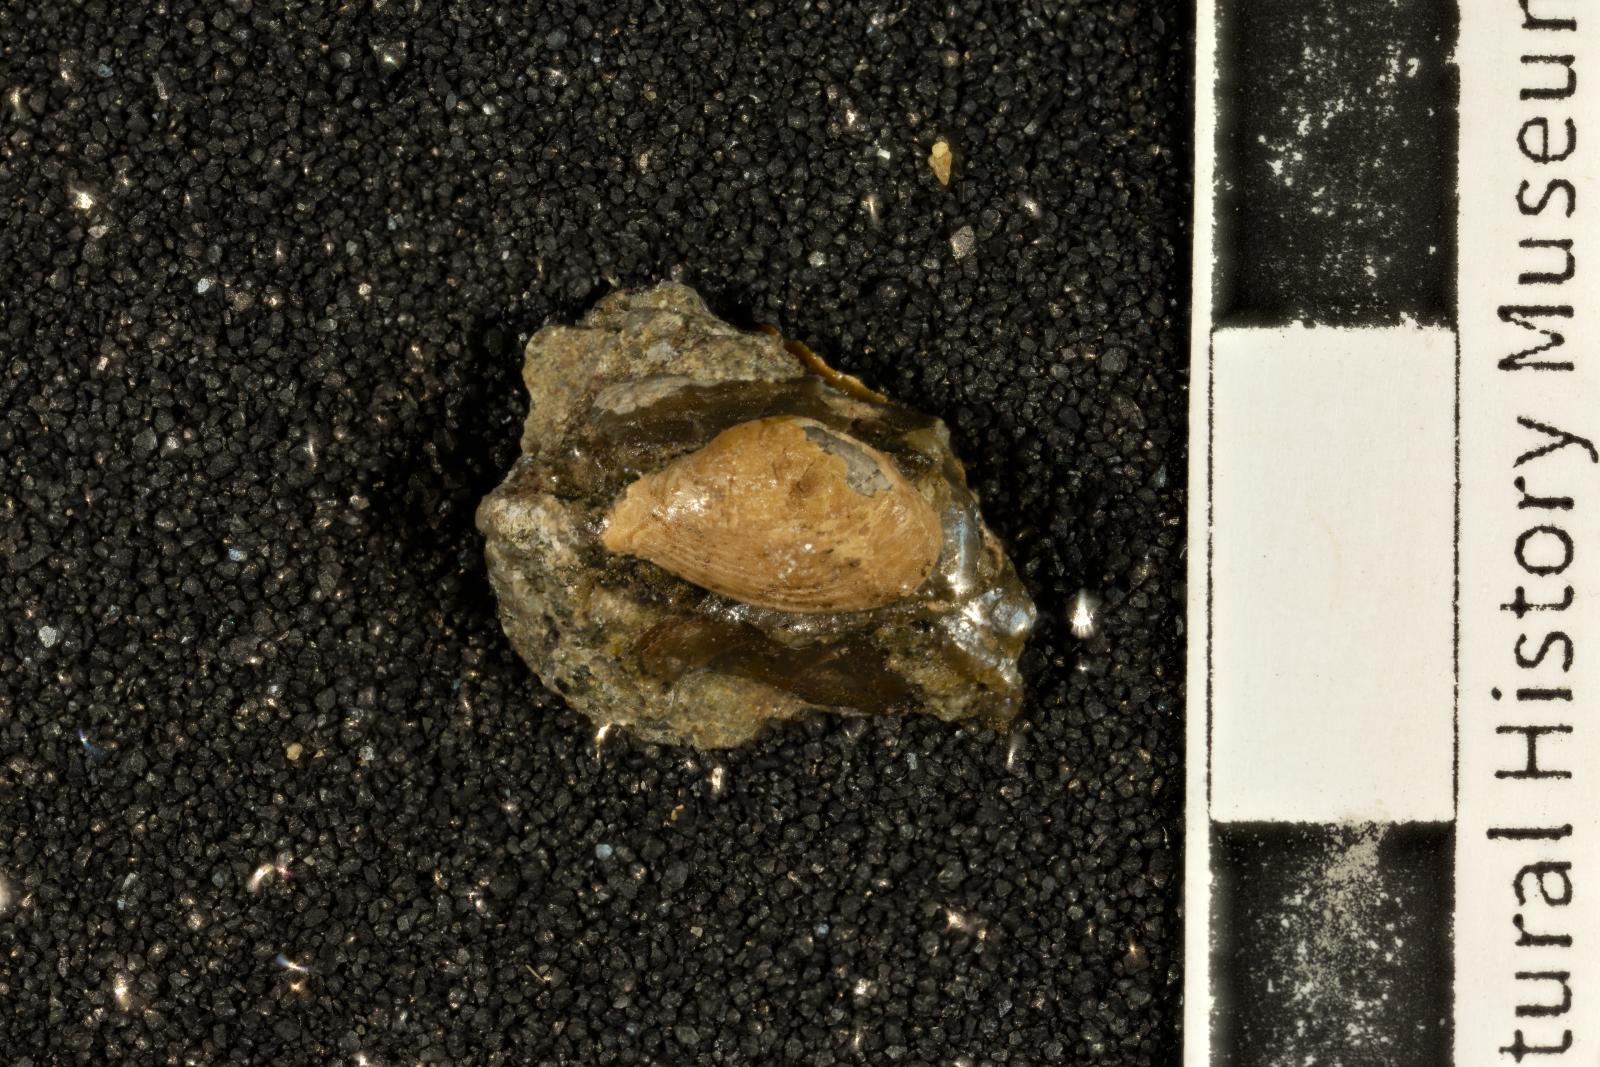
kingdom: Animalia
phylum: Mollusca
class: Bivalvia
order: Myida
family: Corbulidae
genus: Excorbula
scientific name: Excorbula coqua
